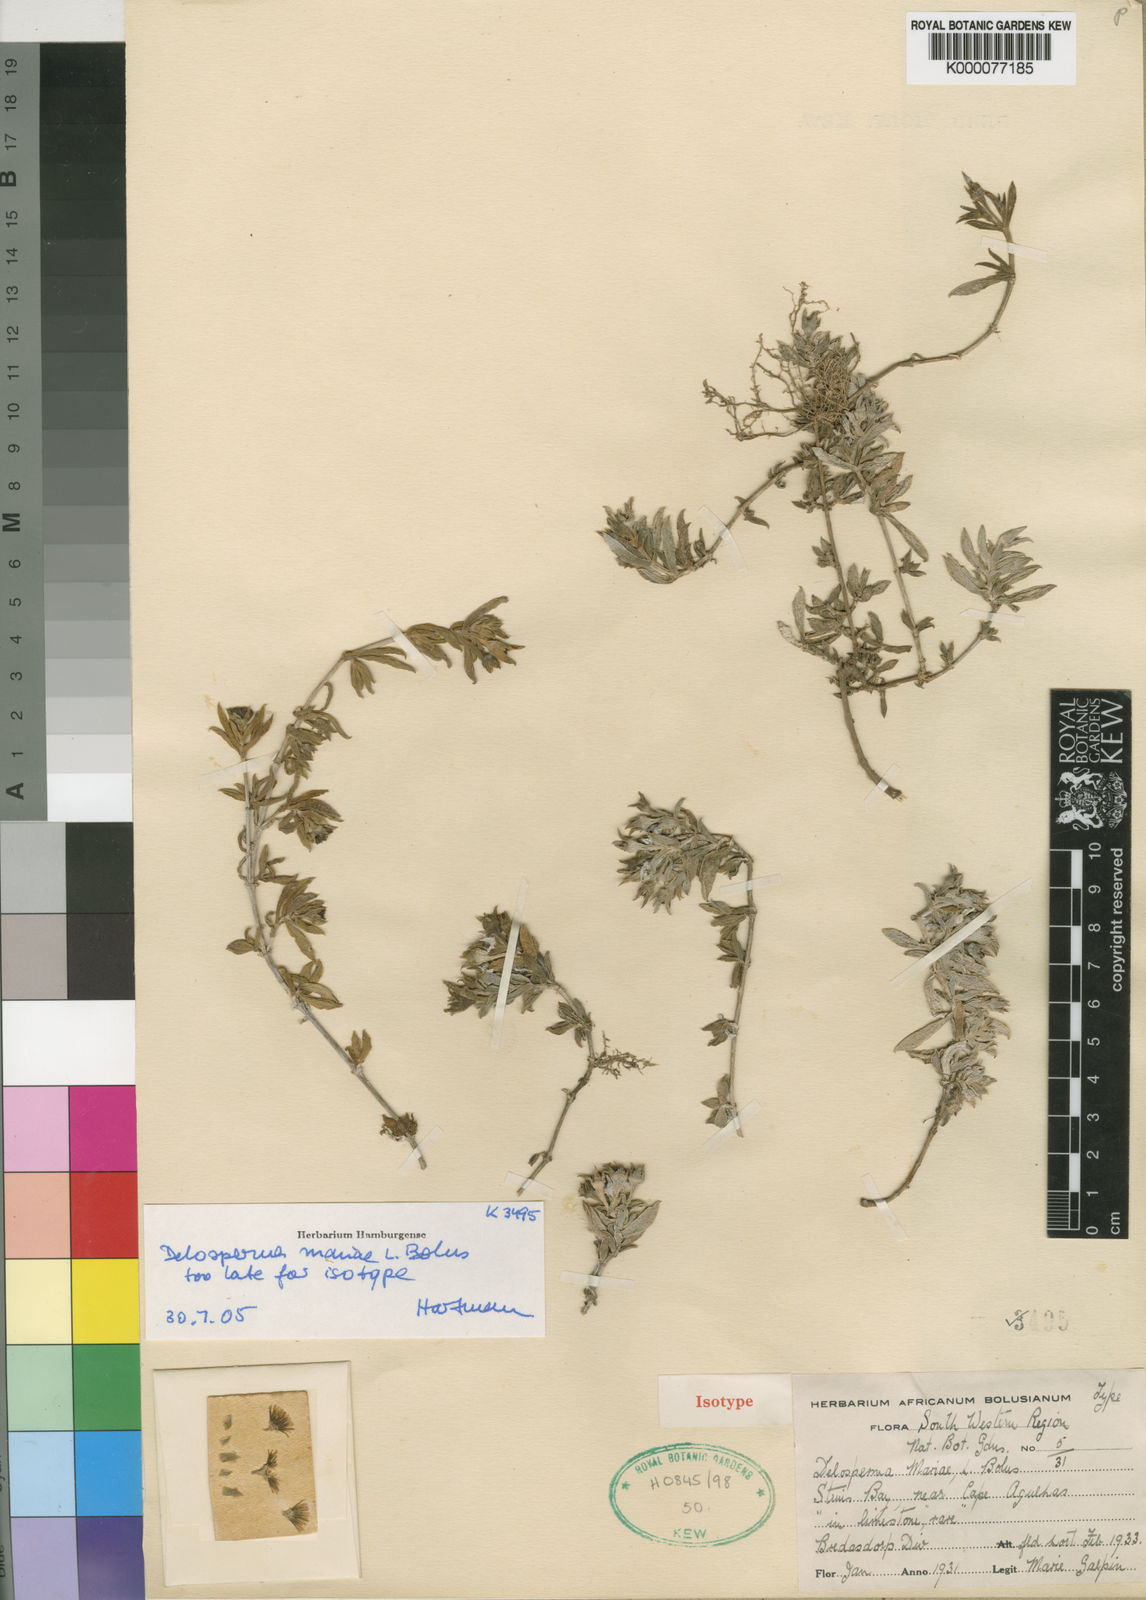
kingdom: Plantae
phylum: Tracheophyta
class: Magnoliopsida
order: Caryophyllales
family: Aizoaceae
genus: Delosperma
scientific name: Delosperma mariae
